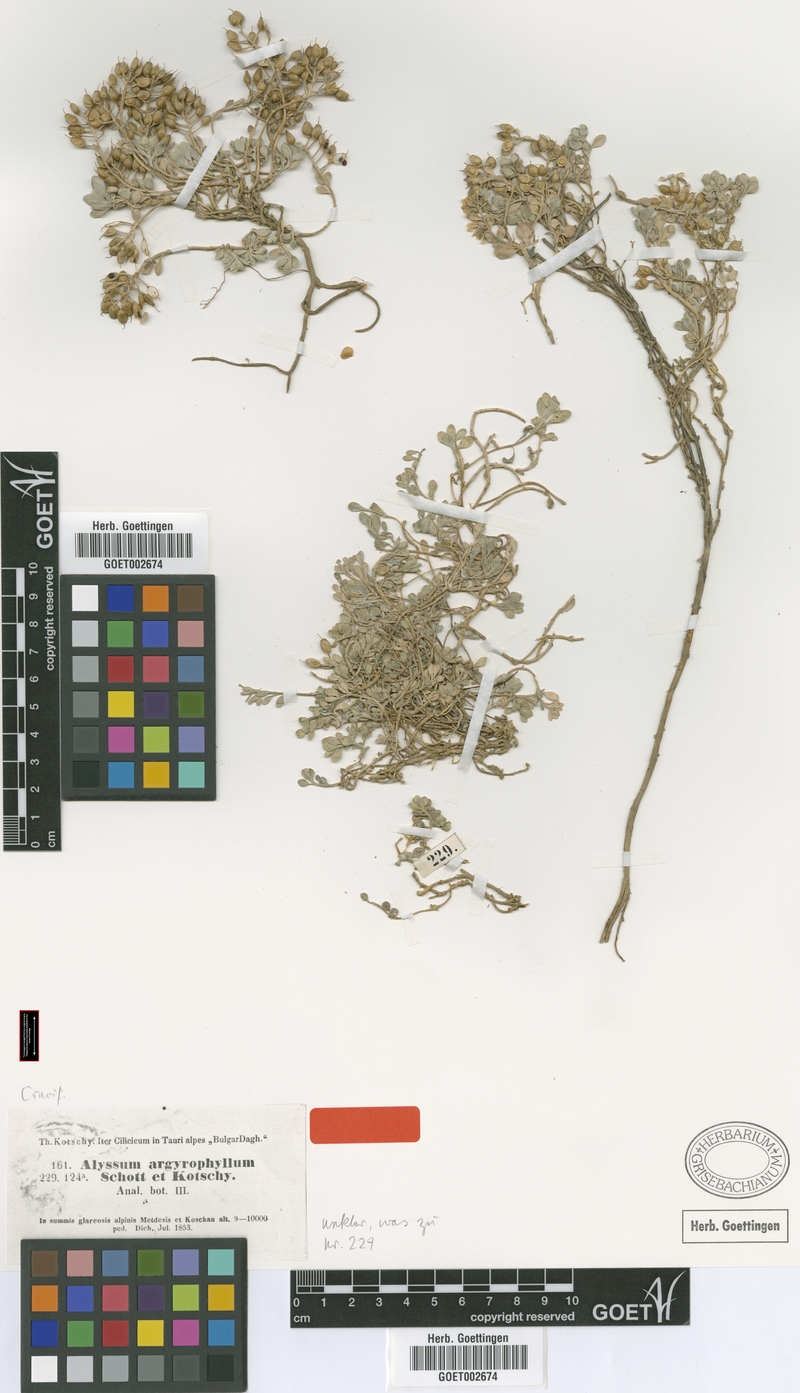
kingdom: Plantae
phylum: Tracheophyta
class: Magnoliopsida
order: Brassicales
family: Brassicaceae
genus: Alyssum
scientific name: Alyssum argyrophyllum
